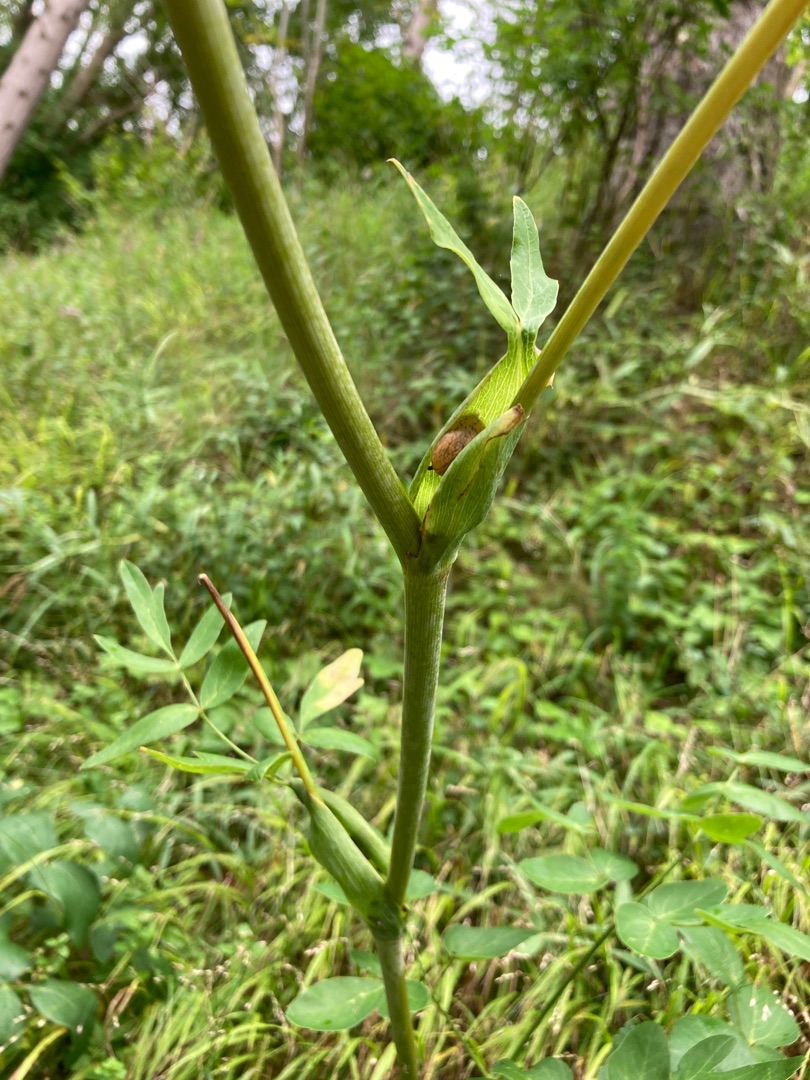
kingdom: Plantae
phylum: Tracheophyta
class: Magnoliopsida
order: Apiales
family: Apiaceae
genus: Laserpitium
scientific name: Laserpitium latifolium
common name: Foldfrø
